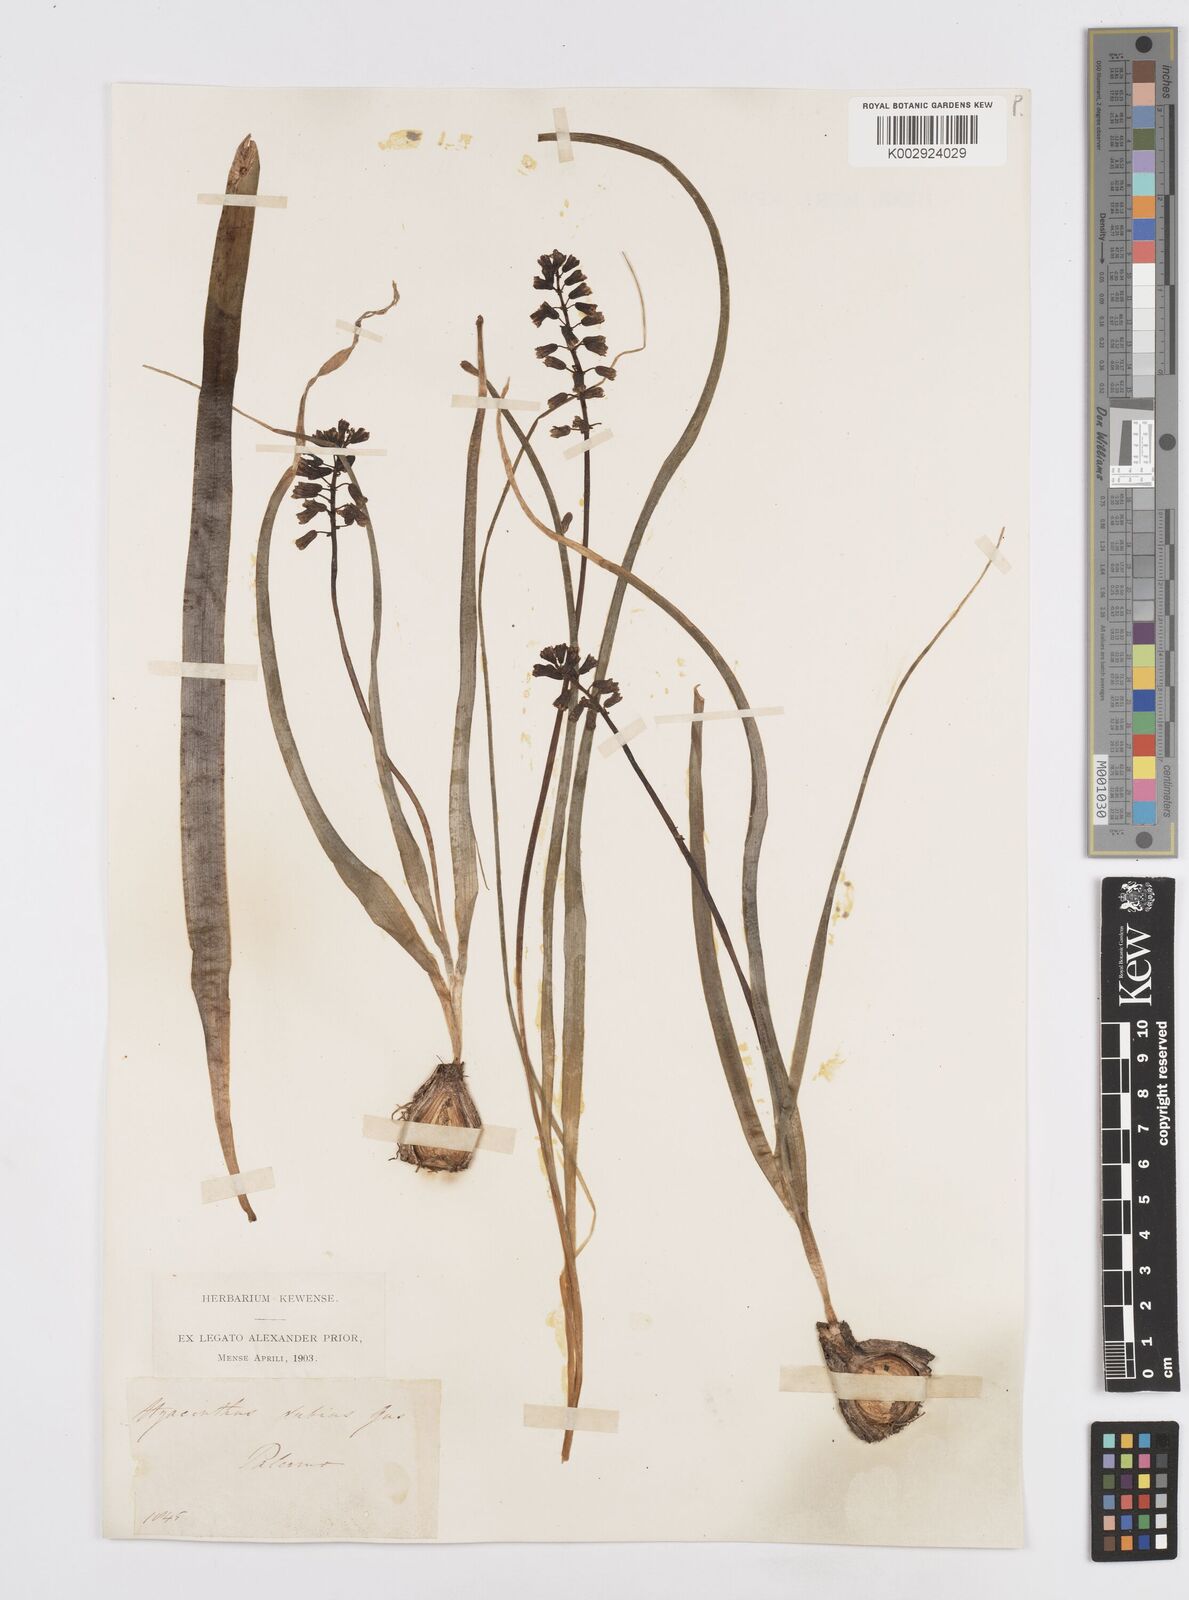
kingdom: Plantae
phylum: Tracheophyta
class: Liliopsida
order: Asparagales
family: Asparagaceae
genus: Bellevalia
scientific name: Bellevalia dubia
